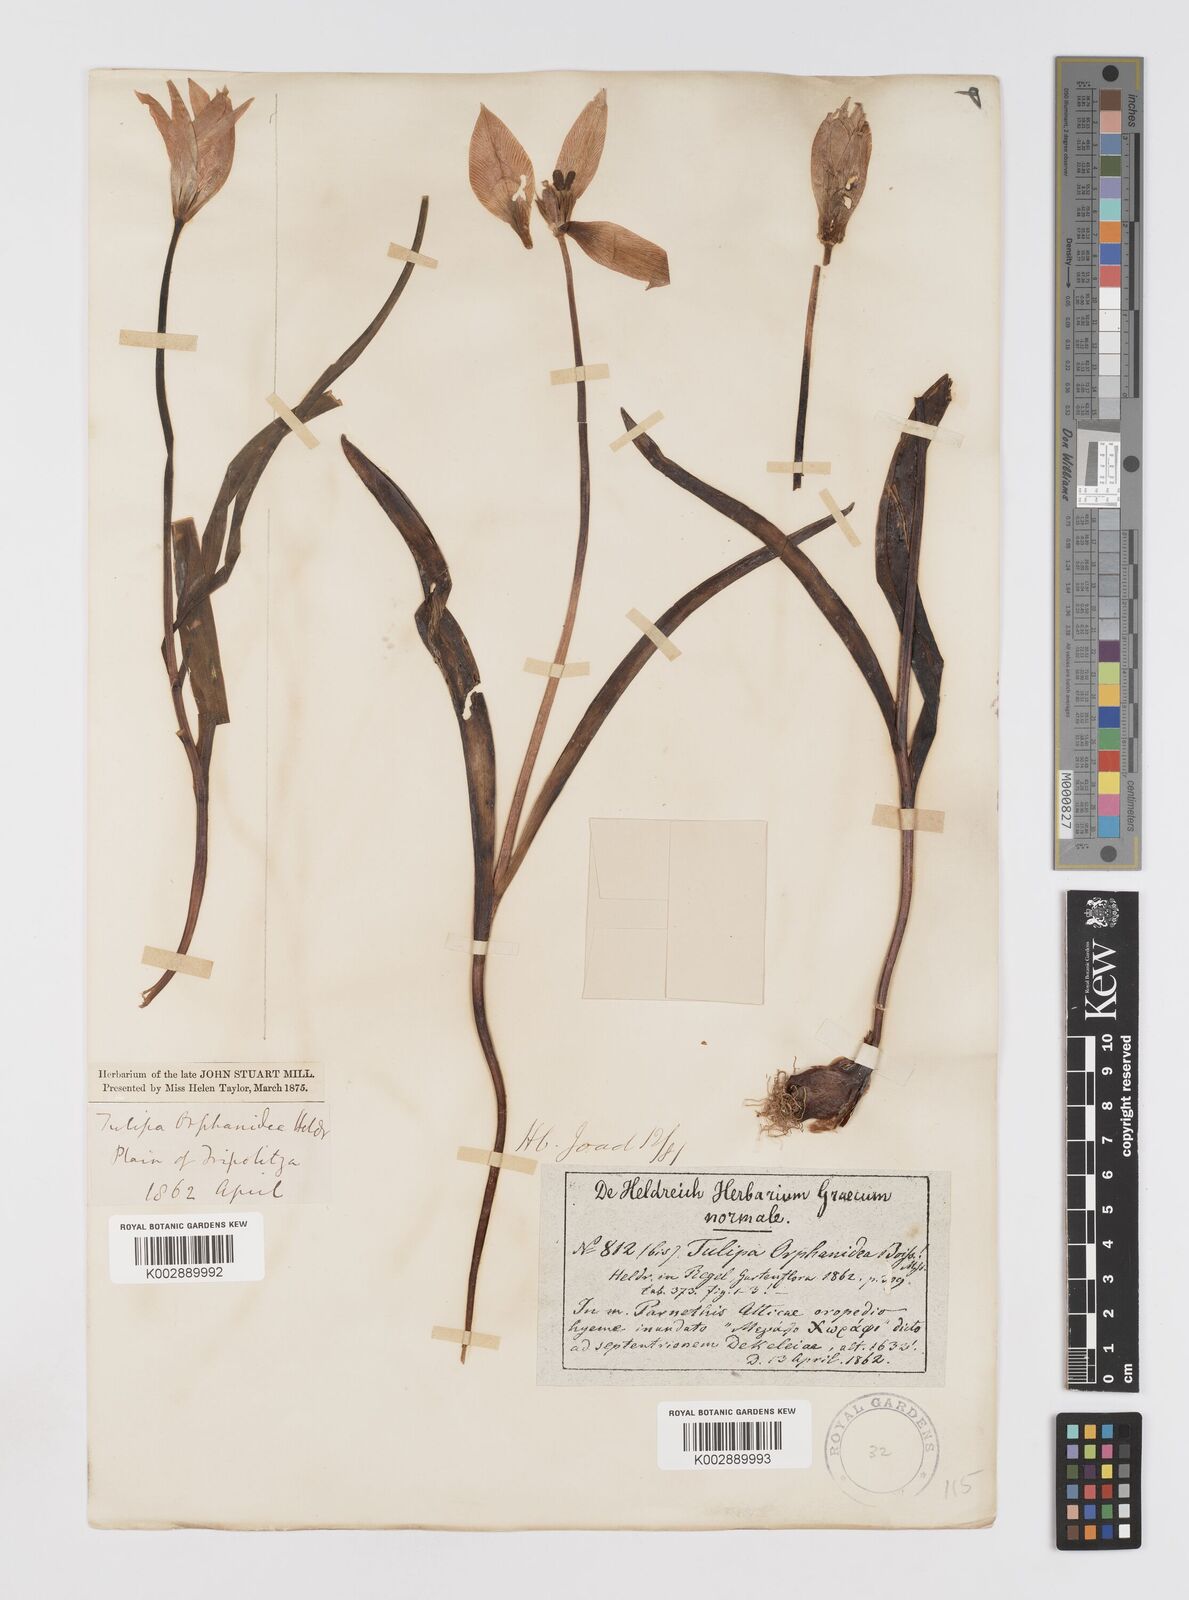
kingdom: Plantae
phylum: Tracheophyta
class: Liliopsida
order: Liliales
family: Liliaceae
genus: Tulipa
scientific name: Tulipa orphanidea
